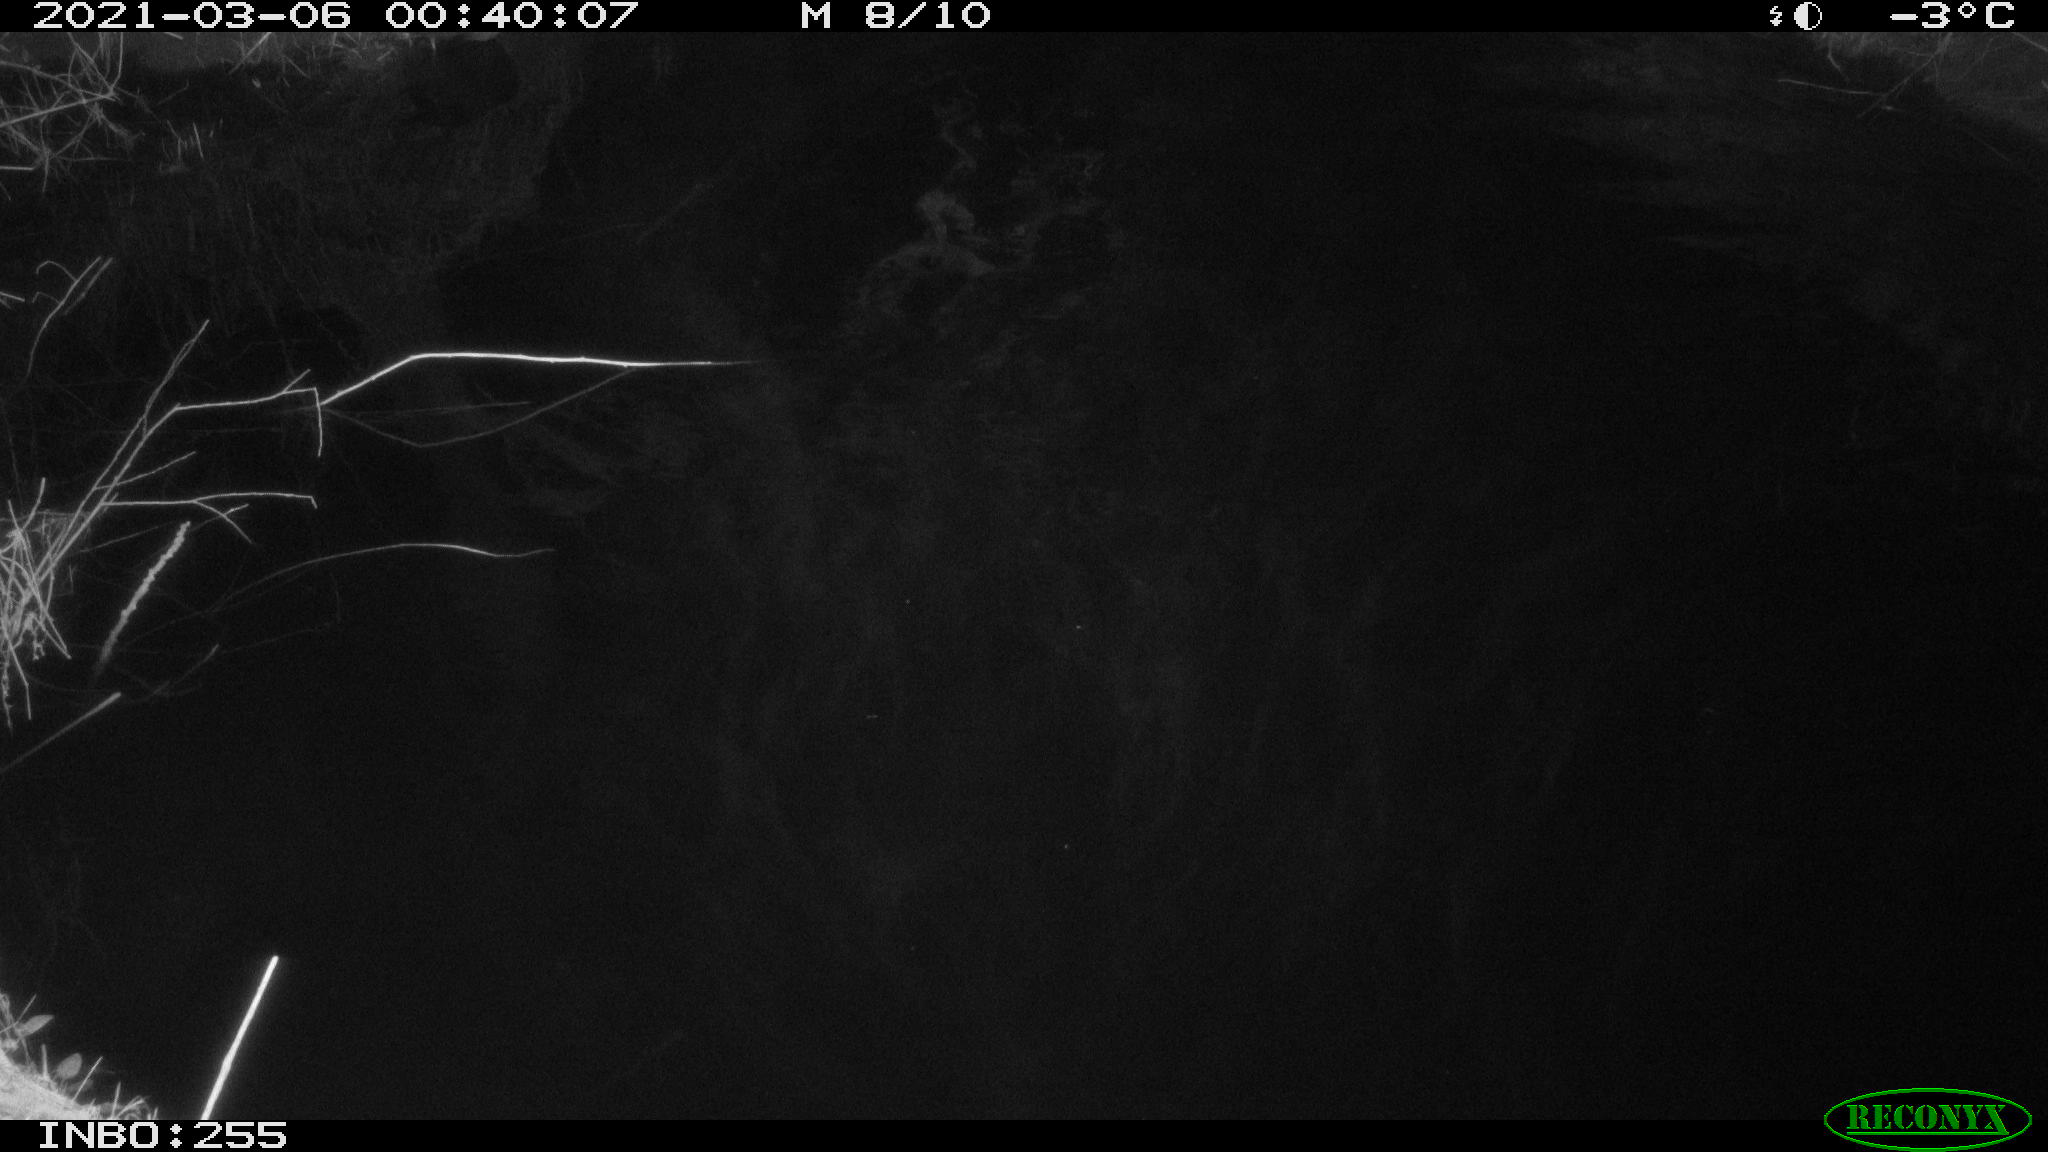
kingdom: Animalia
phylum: Chordata
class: Aves
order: Anseriformes
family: Anatidae
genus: Anas
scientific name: Anas platyrhynchos
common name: Mallard
